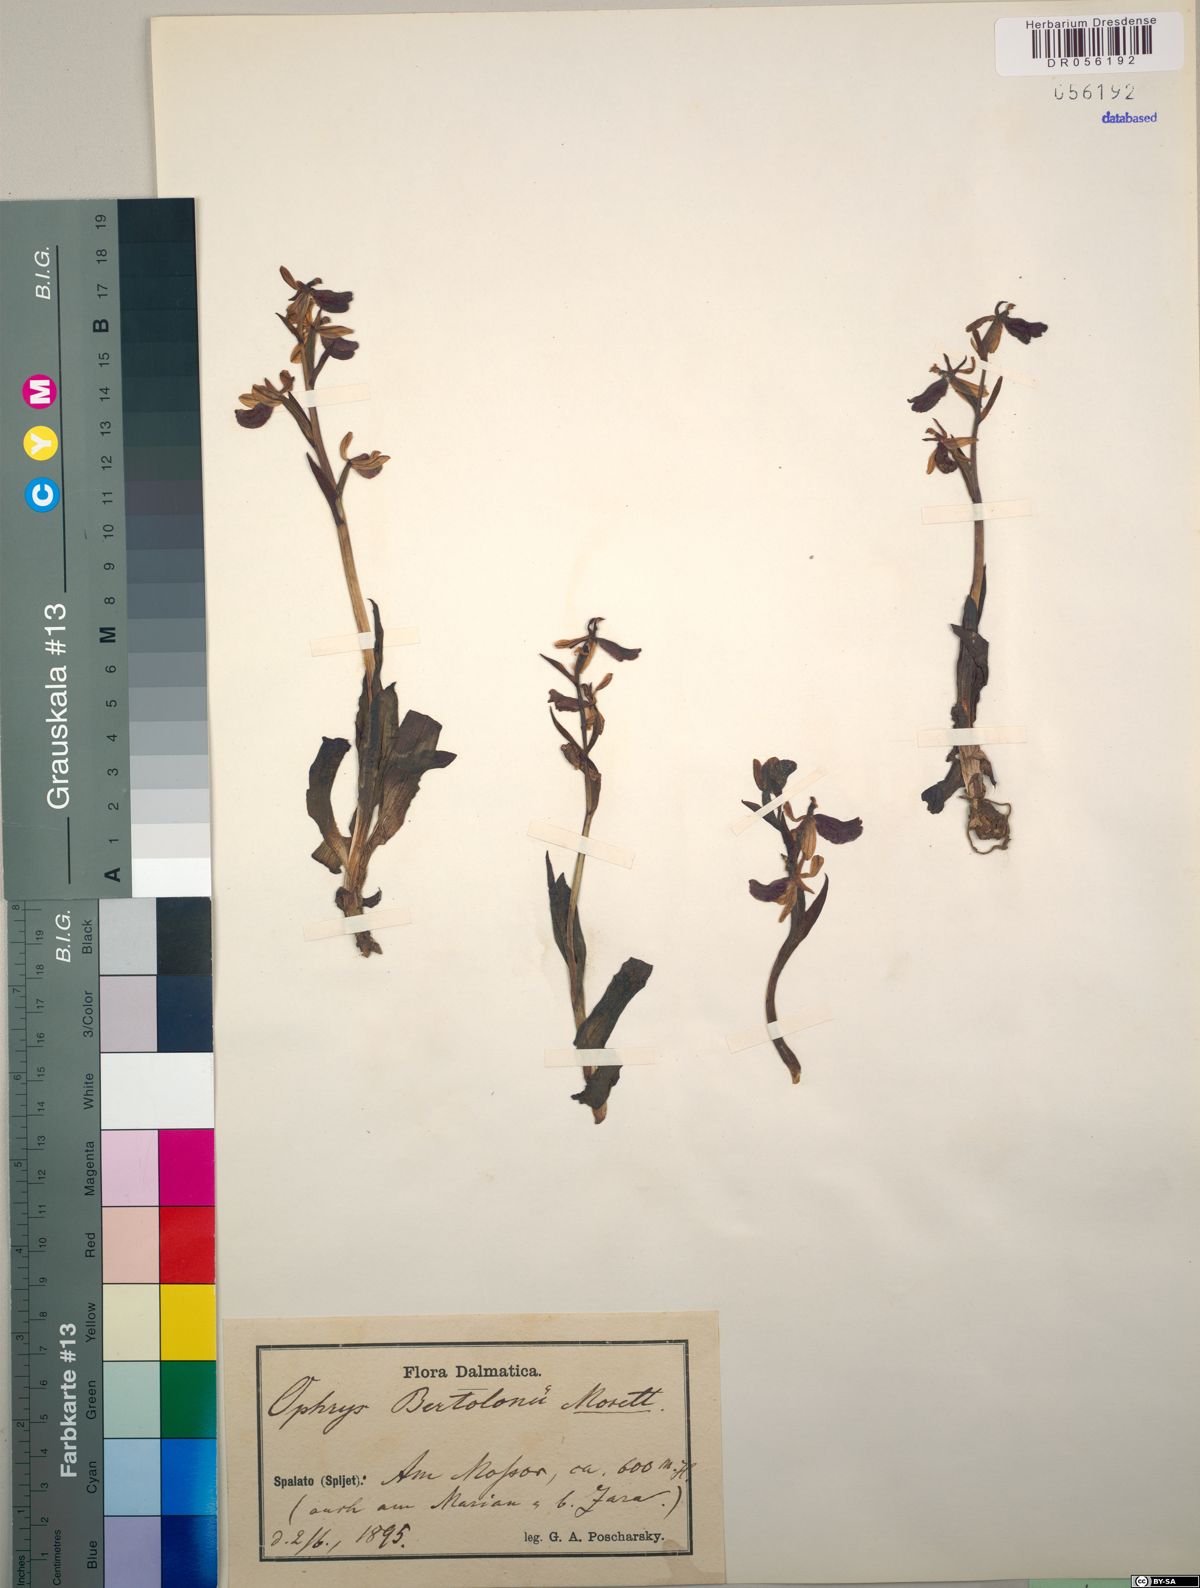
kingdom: Plantae
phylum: Tracheophyta
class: Liliopsida
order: Asparagales
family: Orchidaceae
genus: Ophrys
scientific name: Ophrys bertolonii
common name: Bertoloni's bee orchid
